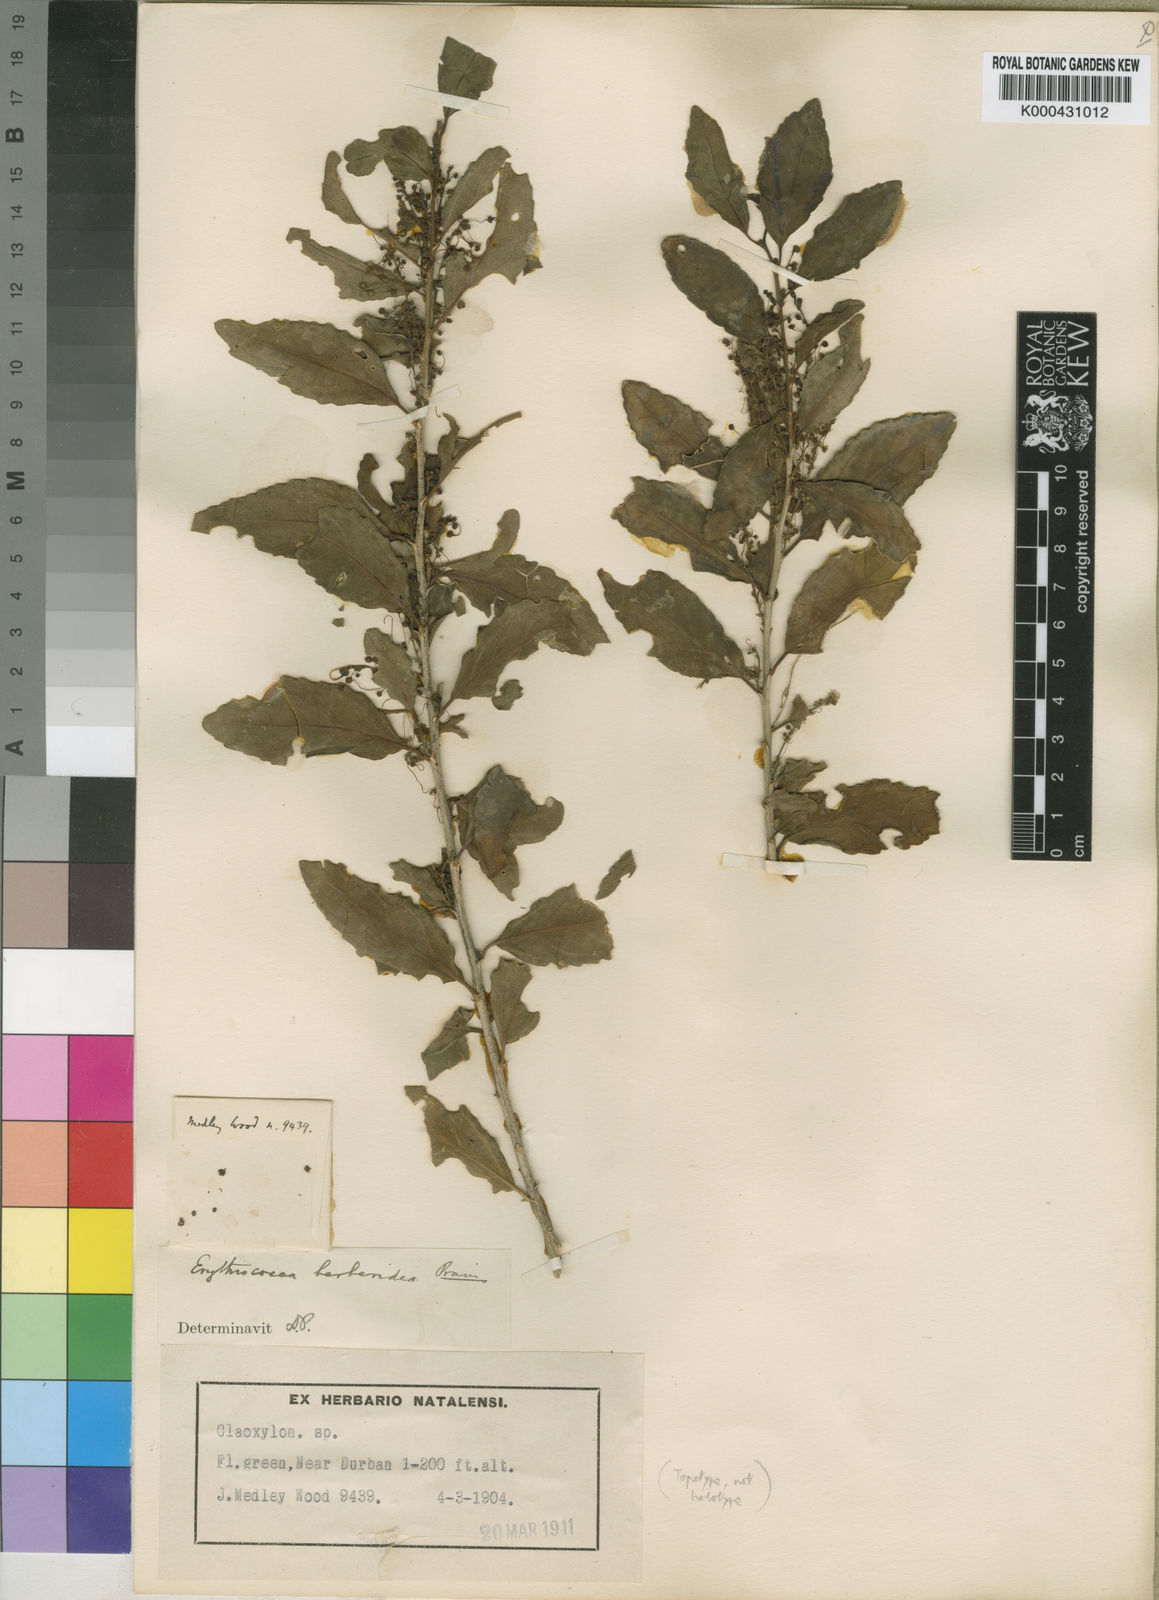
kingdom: Plantae
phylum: Tracheophyta
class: Magnoliopsida
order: Malpighiales
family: Euphorbiaceae
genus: Erythrococca
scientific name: Erythrococca berberidea
